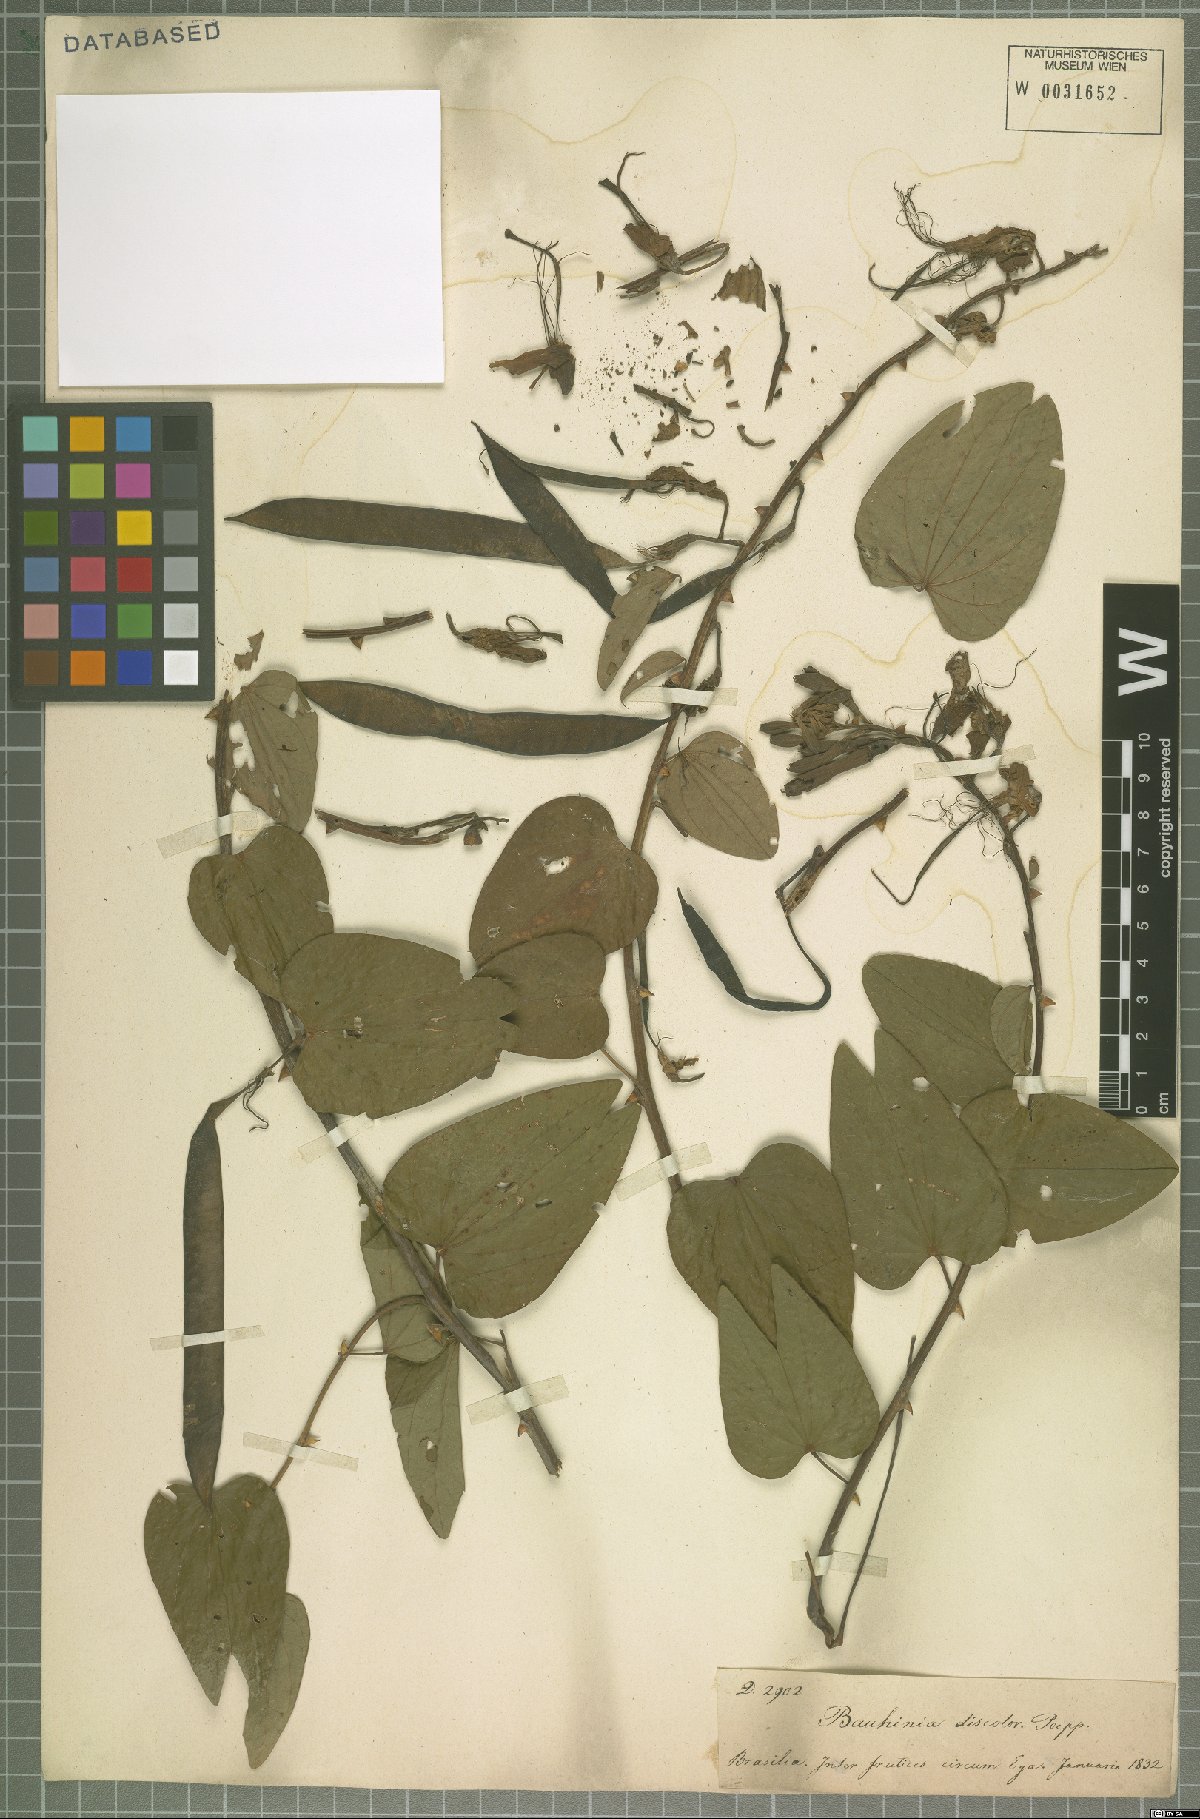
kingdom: Plantae
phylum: Tracheophyta
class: Magnoliopsida
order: Fabales
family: Fabaceae
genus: Bauhinia
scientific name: Bauhinia
